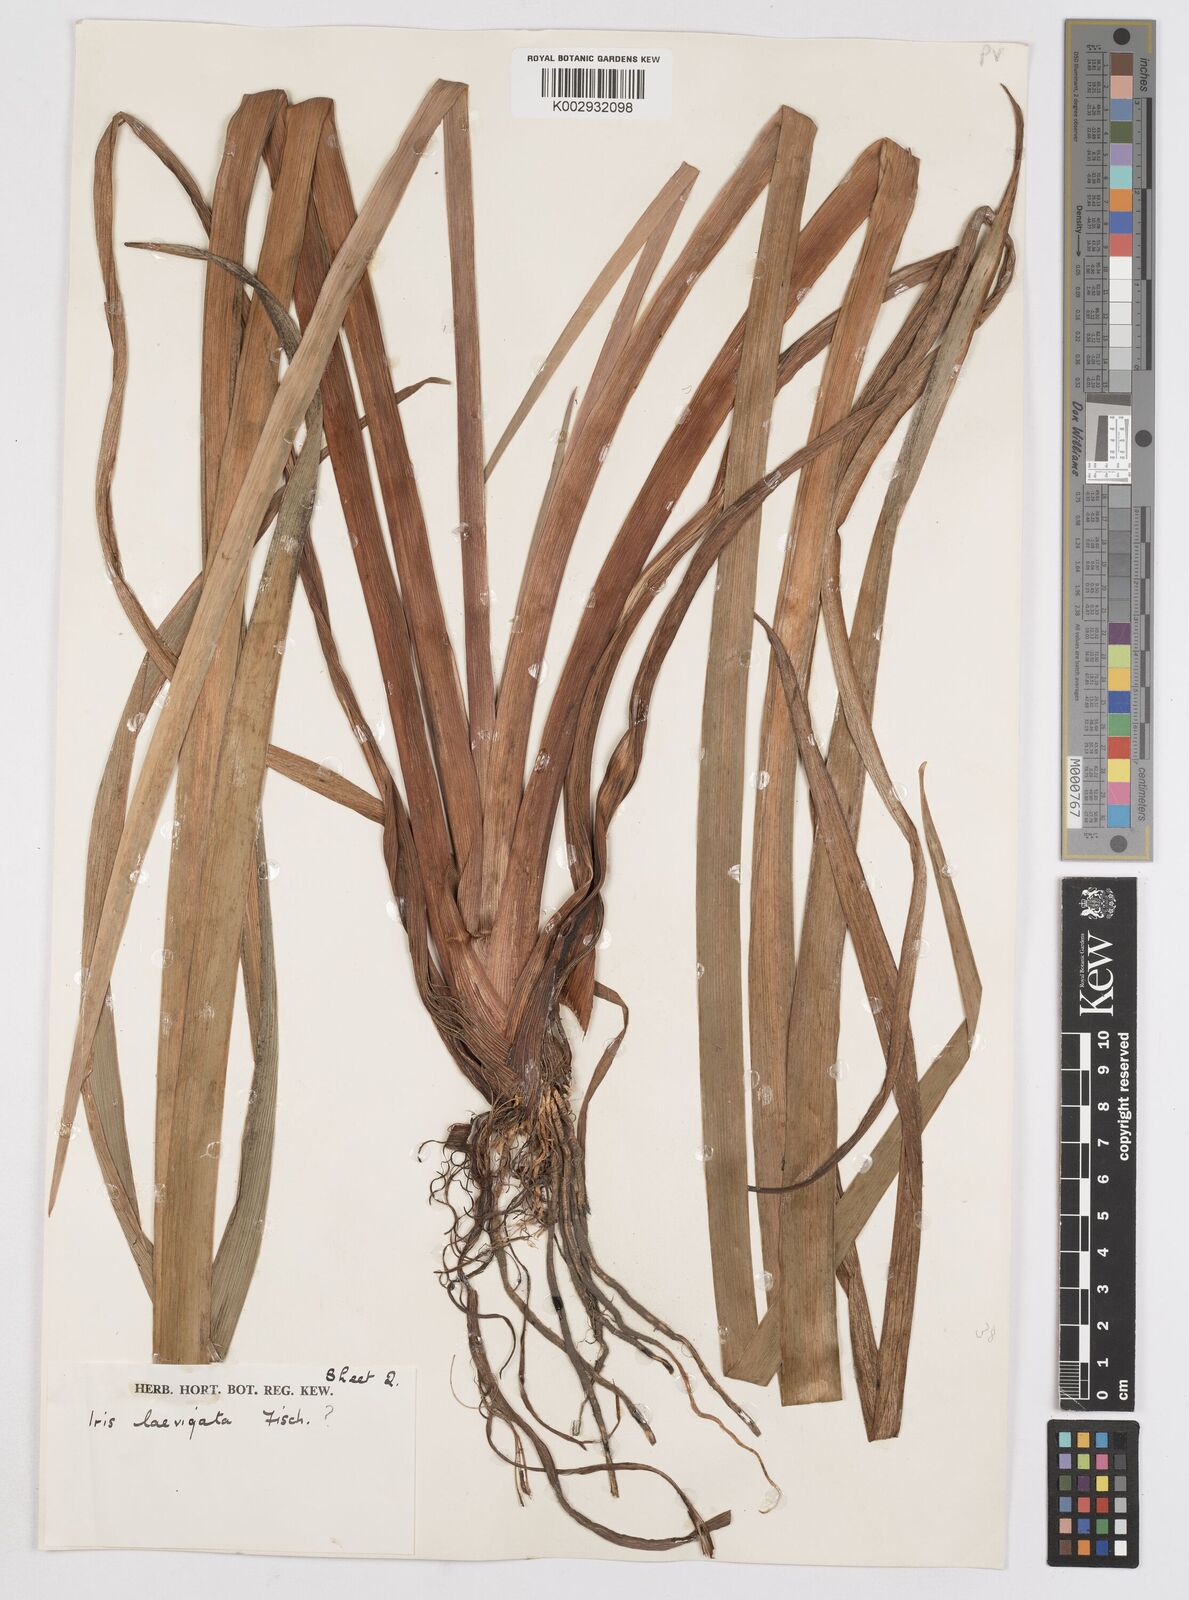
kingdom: Plantae
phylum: Tracheophyta
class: Liliopsida
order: Asparagales
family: Iridaceae
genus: Iris
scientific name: Iris laevigata
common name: Japanese iris
